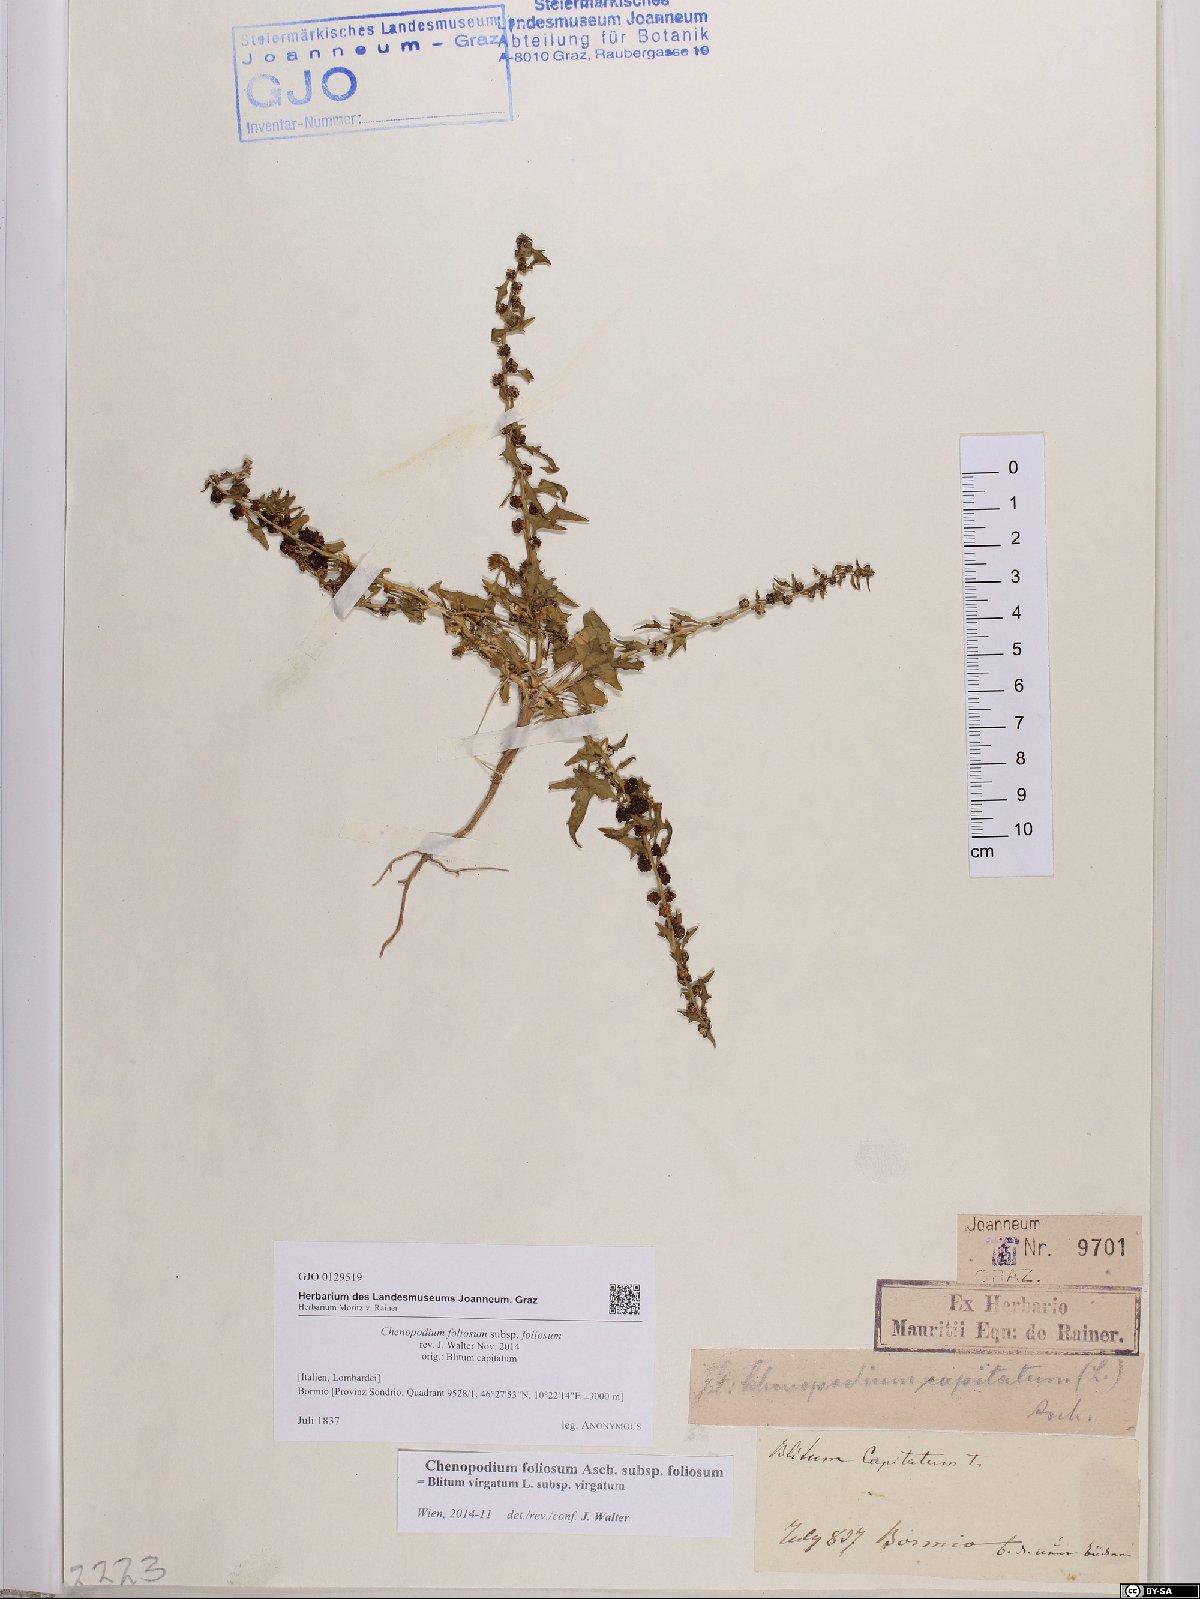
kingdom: Plantae
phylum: Tracheophyta
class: Magnoliopsida
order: Caryophyllales
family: Amaranthaceae
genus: Blitum
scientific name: Blitum virgatum
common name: Strawberry goosefoot
